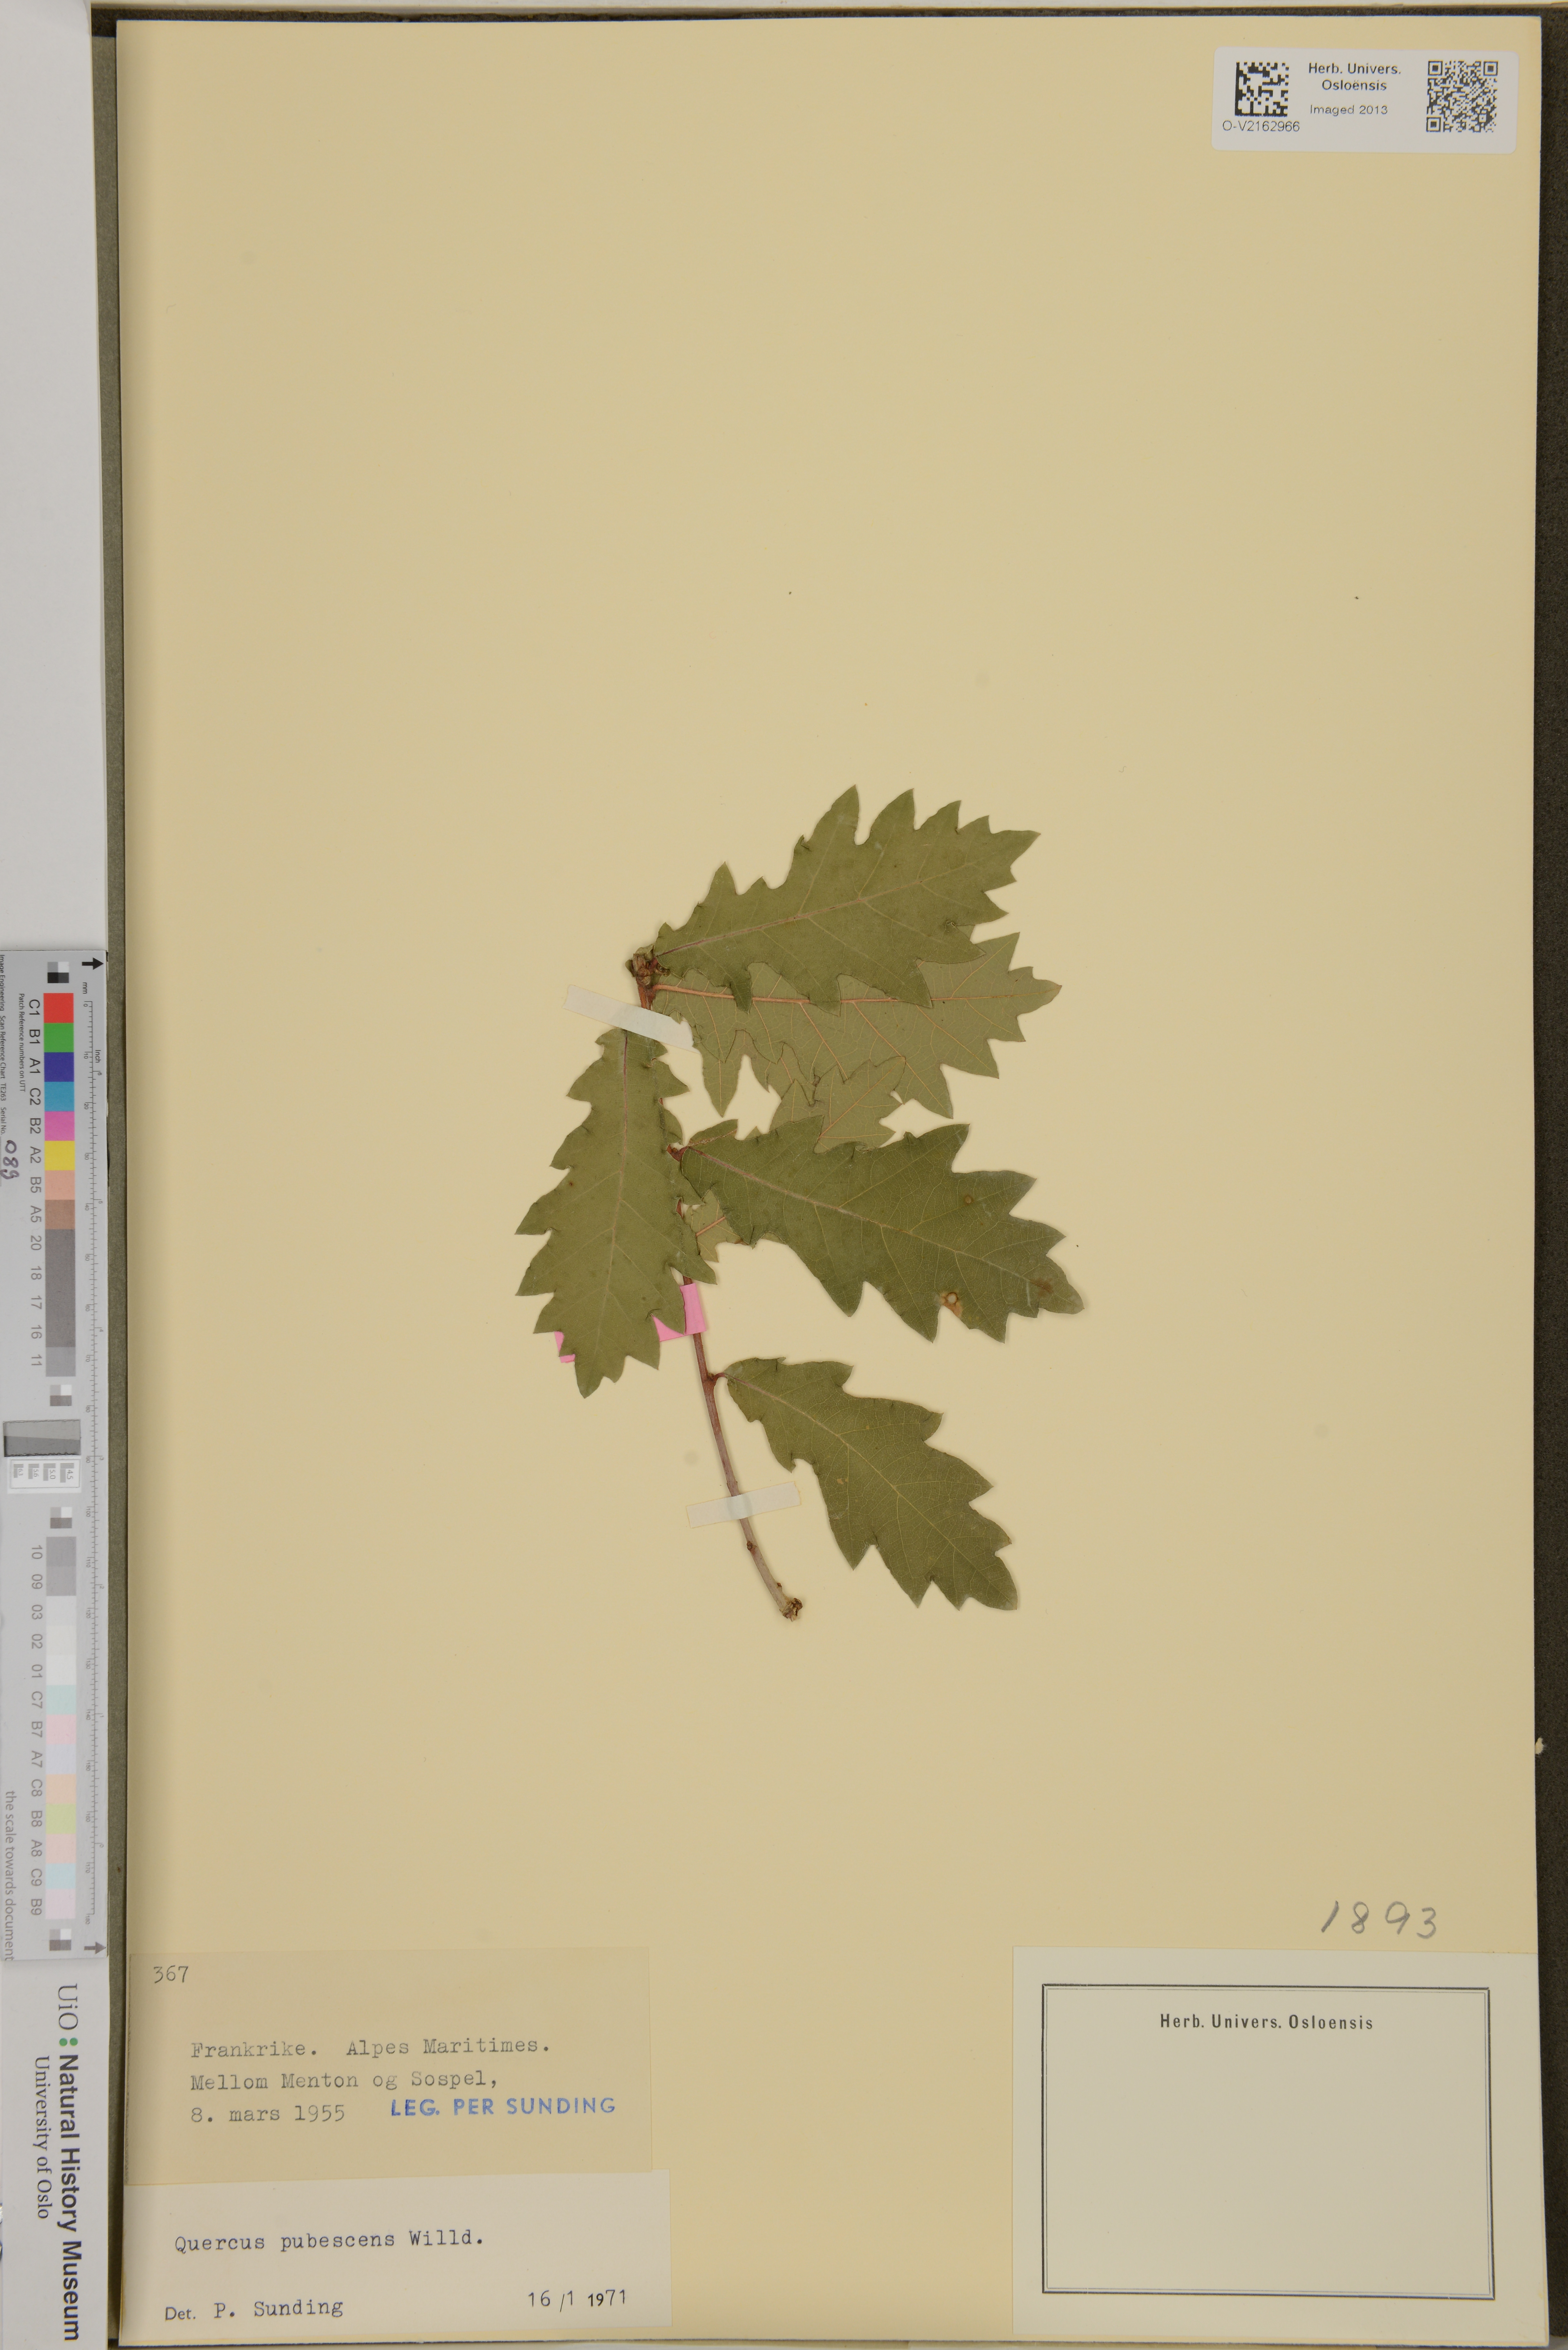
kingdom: Plantae
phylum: Tracheophyta
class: Magnoliopsida
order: Fagales
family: Fagaceae
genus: Quercus
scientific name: Quercus pubescens
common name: Downy oak
